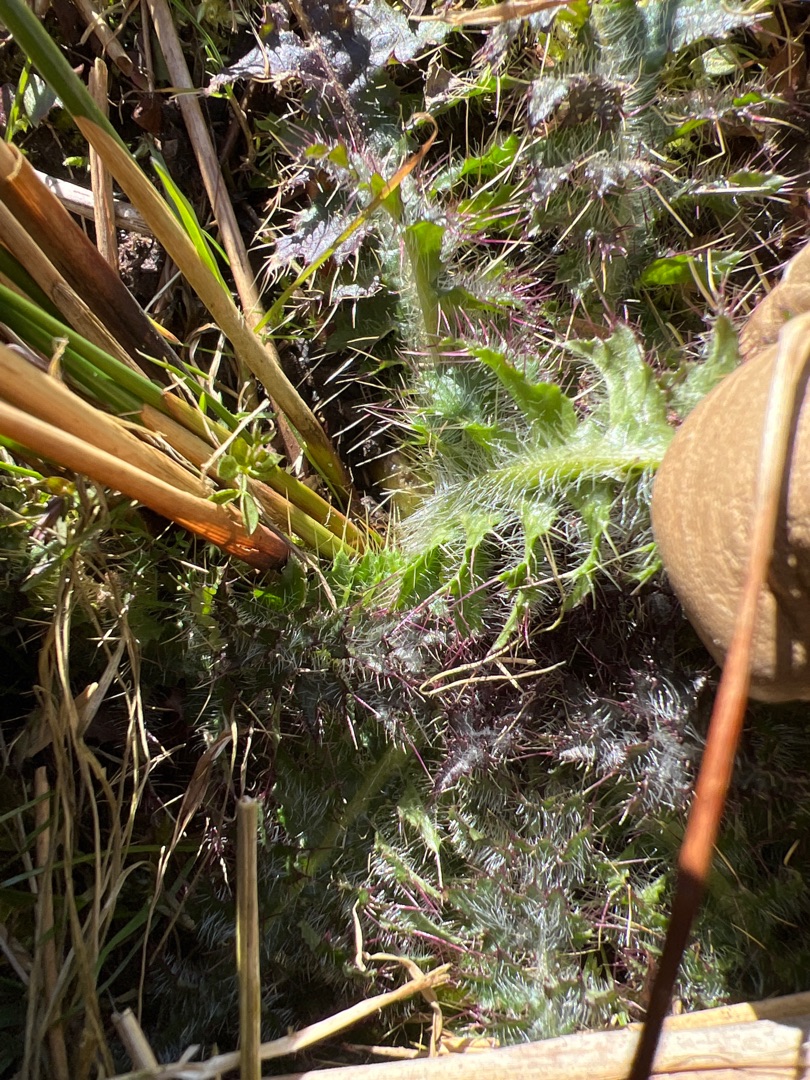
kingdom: Plantae
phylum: Tracheophyta
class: Magnoliopsida
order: Asterales
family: Asteraceae
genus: Cirsium
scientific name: Cirsium vulgare
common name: Horse-tidsel
